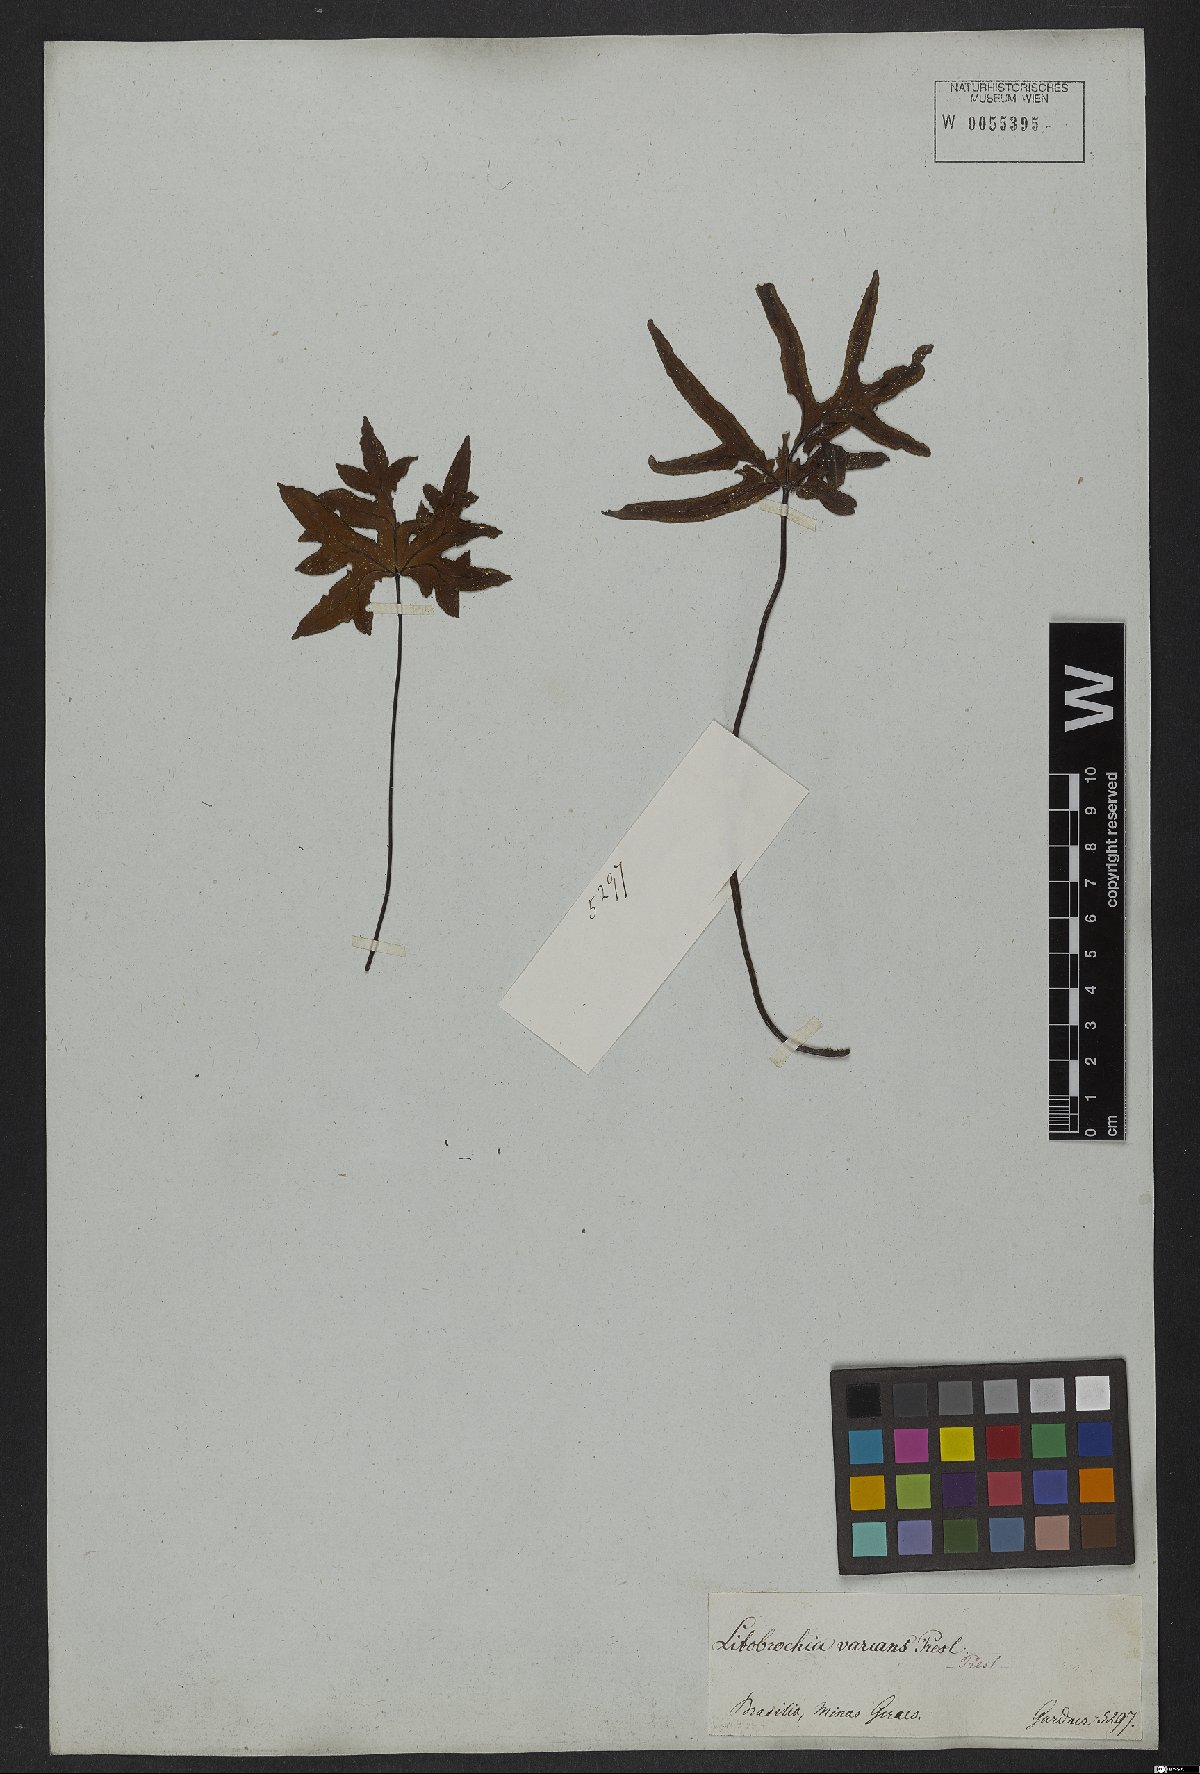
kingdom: Plantae
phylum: Tracheophyta
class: Polypodiopsida
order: Polypodiales
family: Pteridaceae
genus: Doryopteris
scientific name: Doryopteris varians
